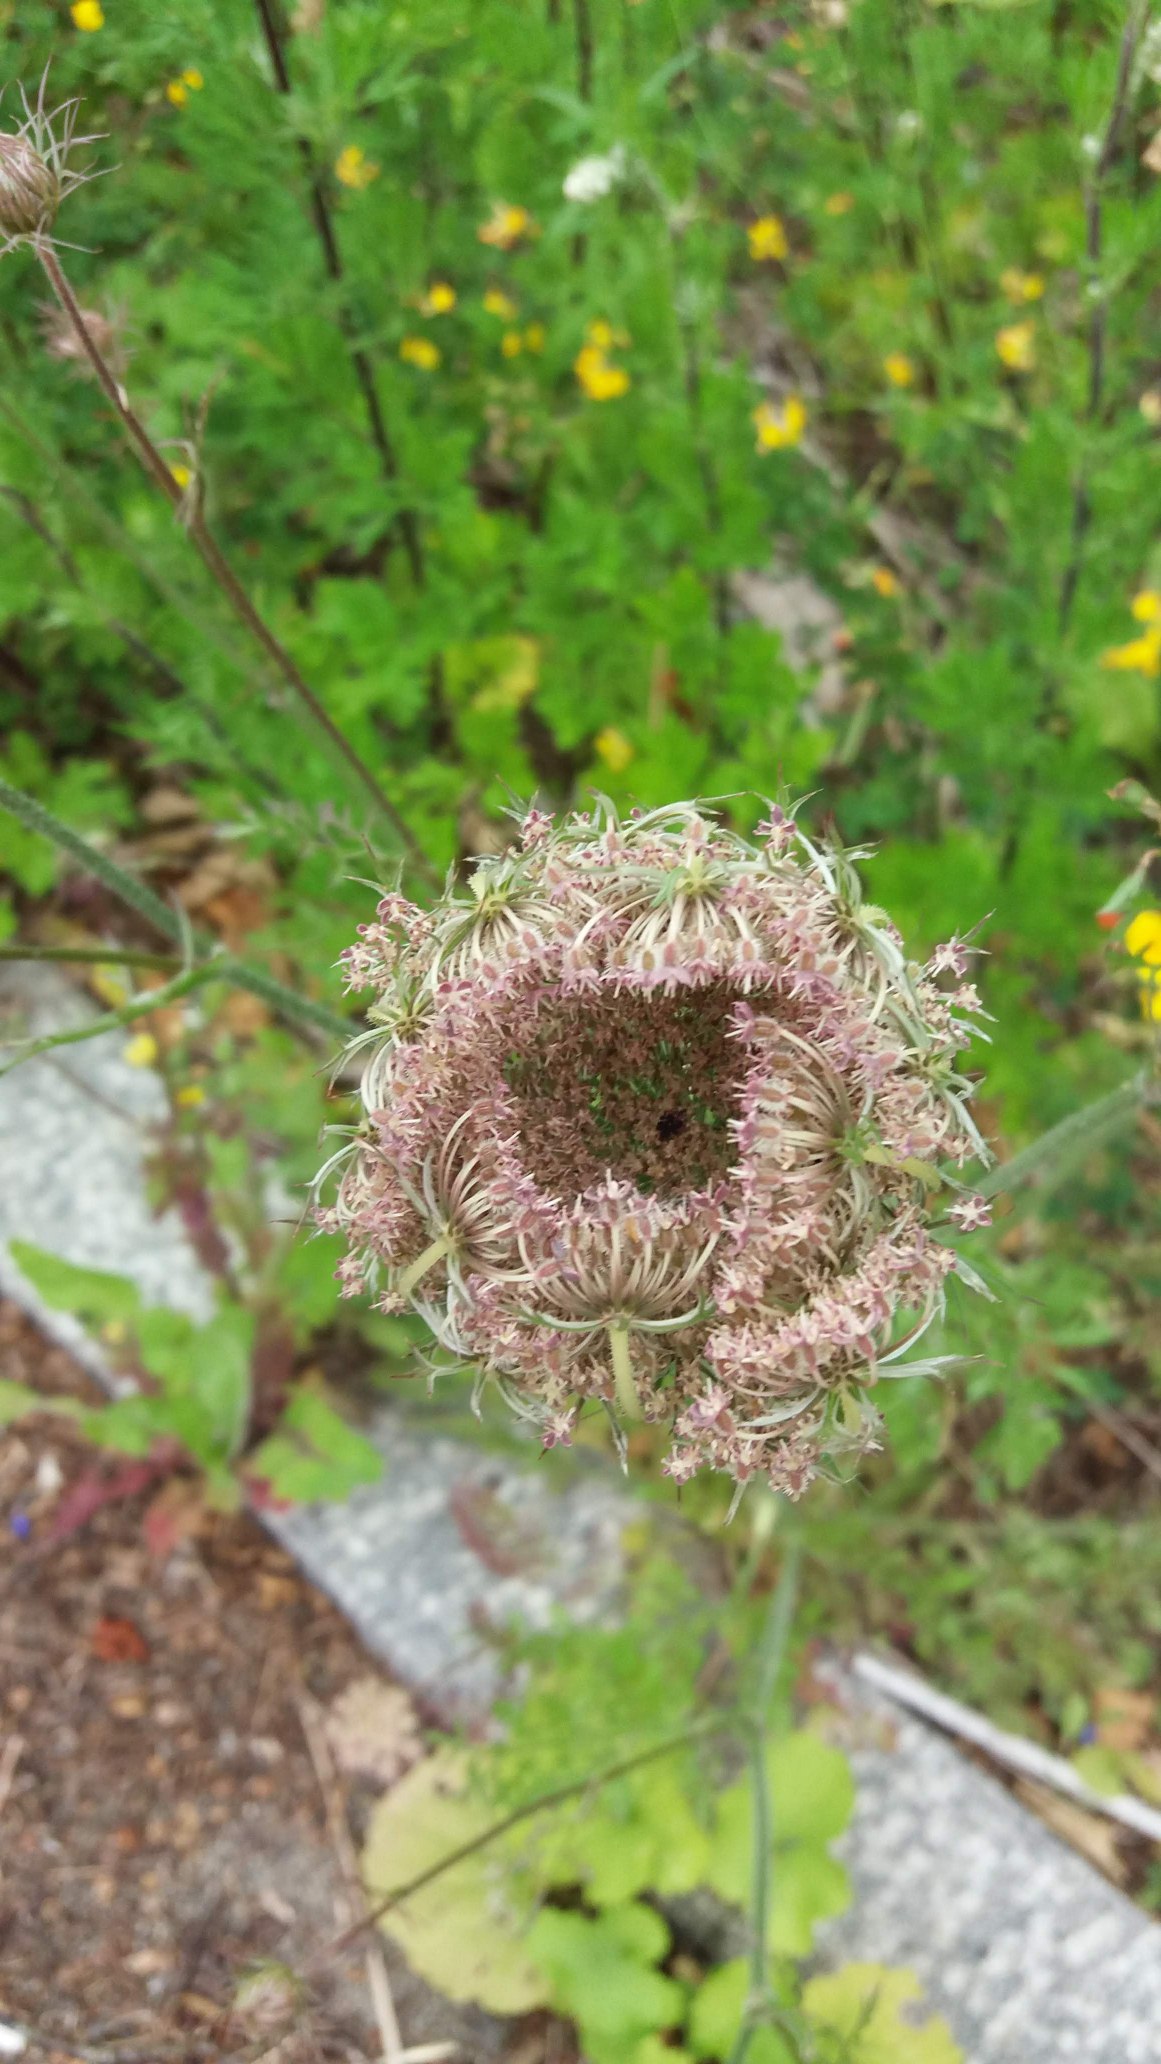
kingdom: Plantae
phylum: Tracheophyta
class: Magnoliopsida
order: Apiales
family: Apiaceae
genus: Daucus
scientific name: Daucus carota
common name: Gulerod
